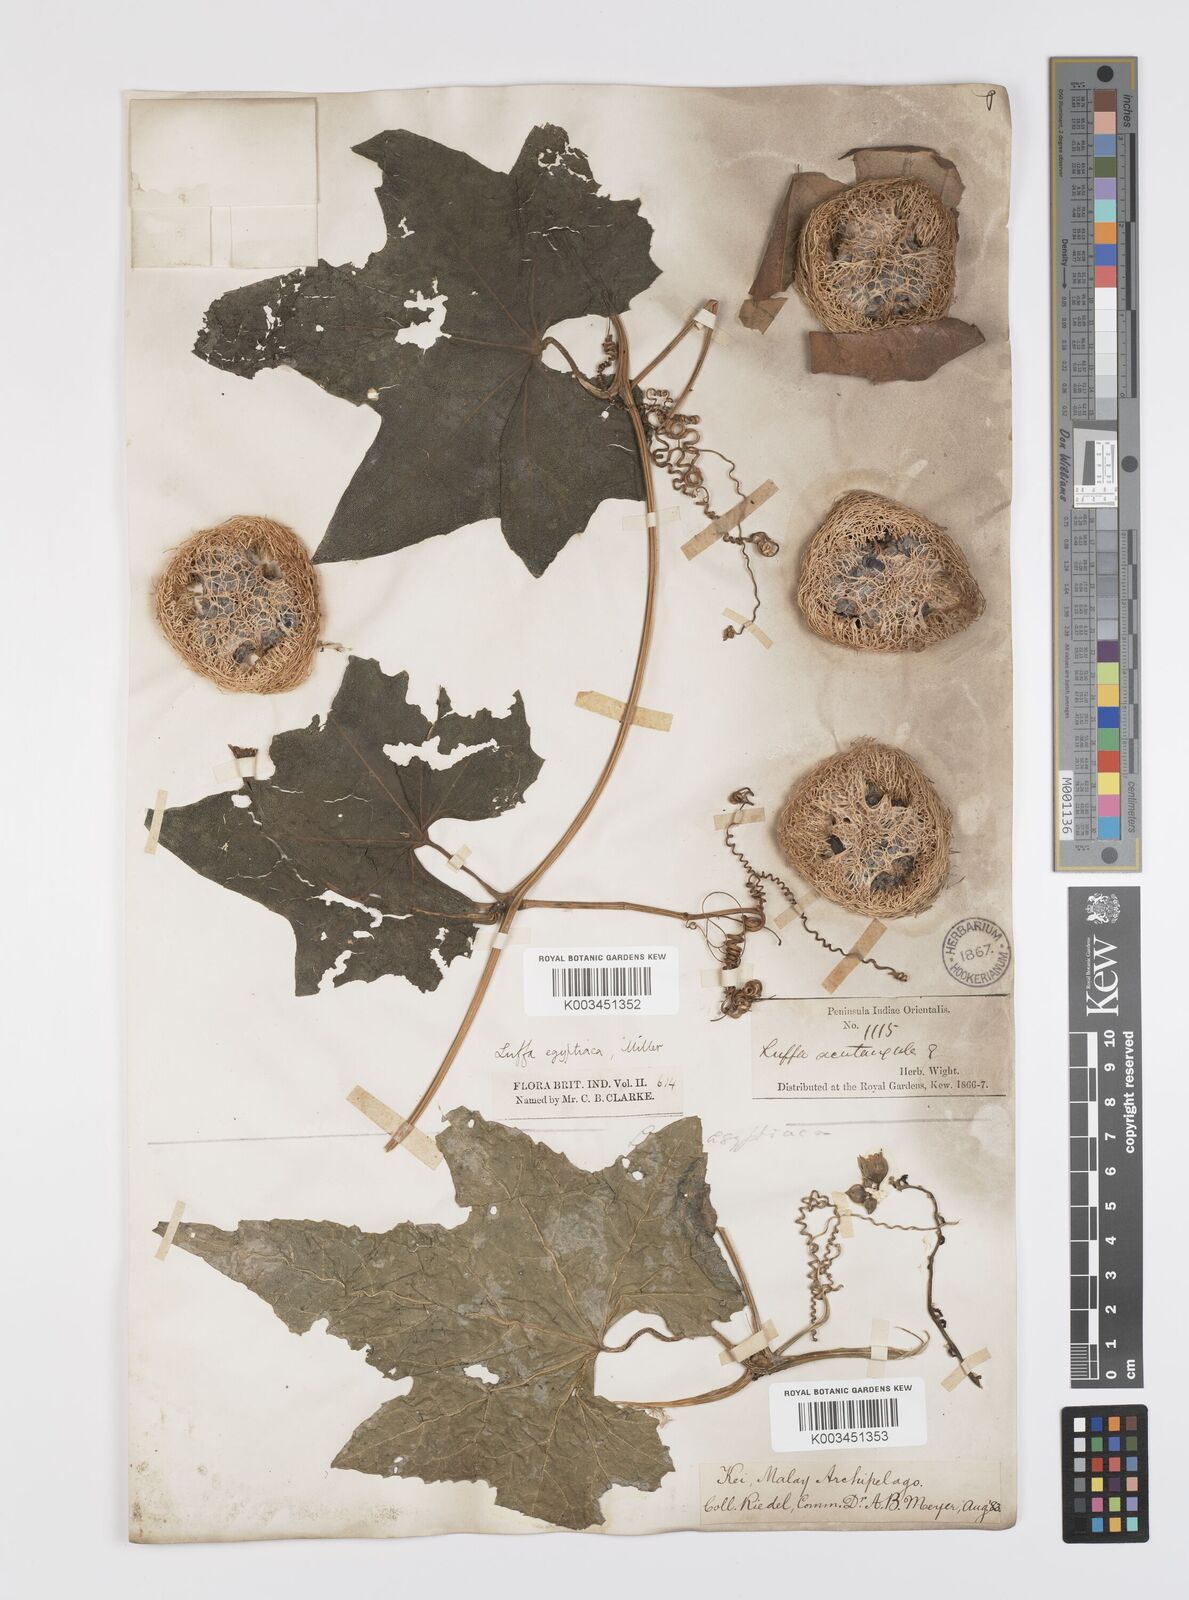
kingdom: Plantae
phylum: Tracheophyta
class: Magnoliopsida
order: Cucurbitales
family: Cucurbitaceae
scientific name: Cucurbitaceae
